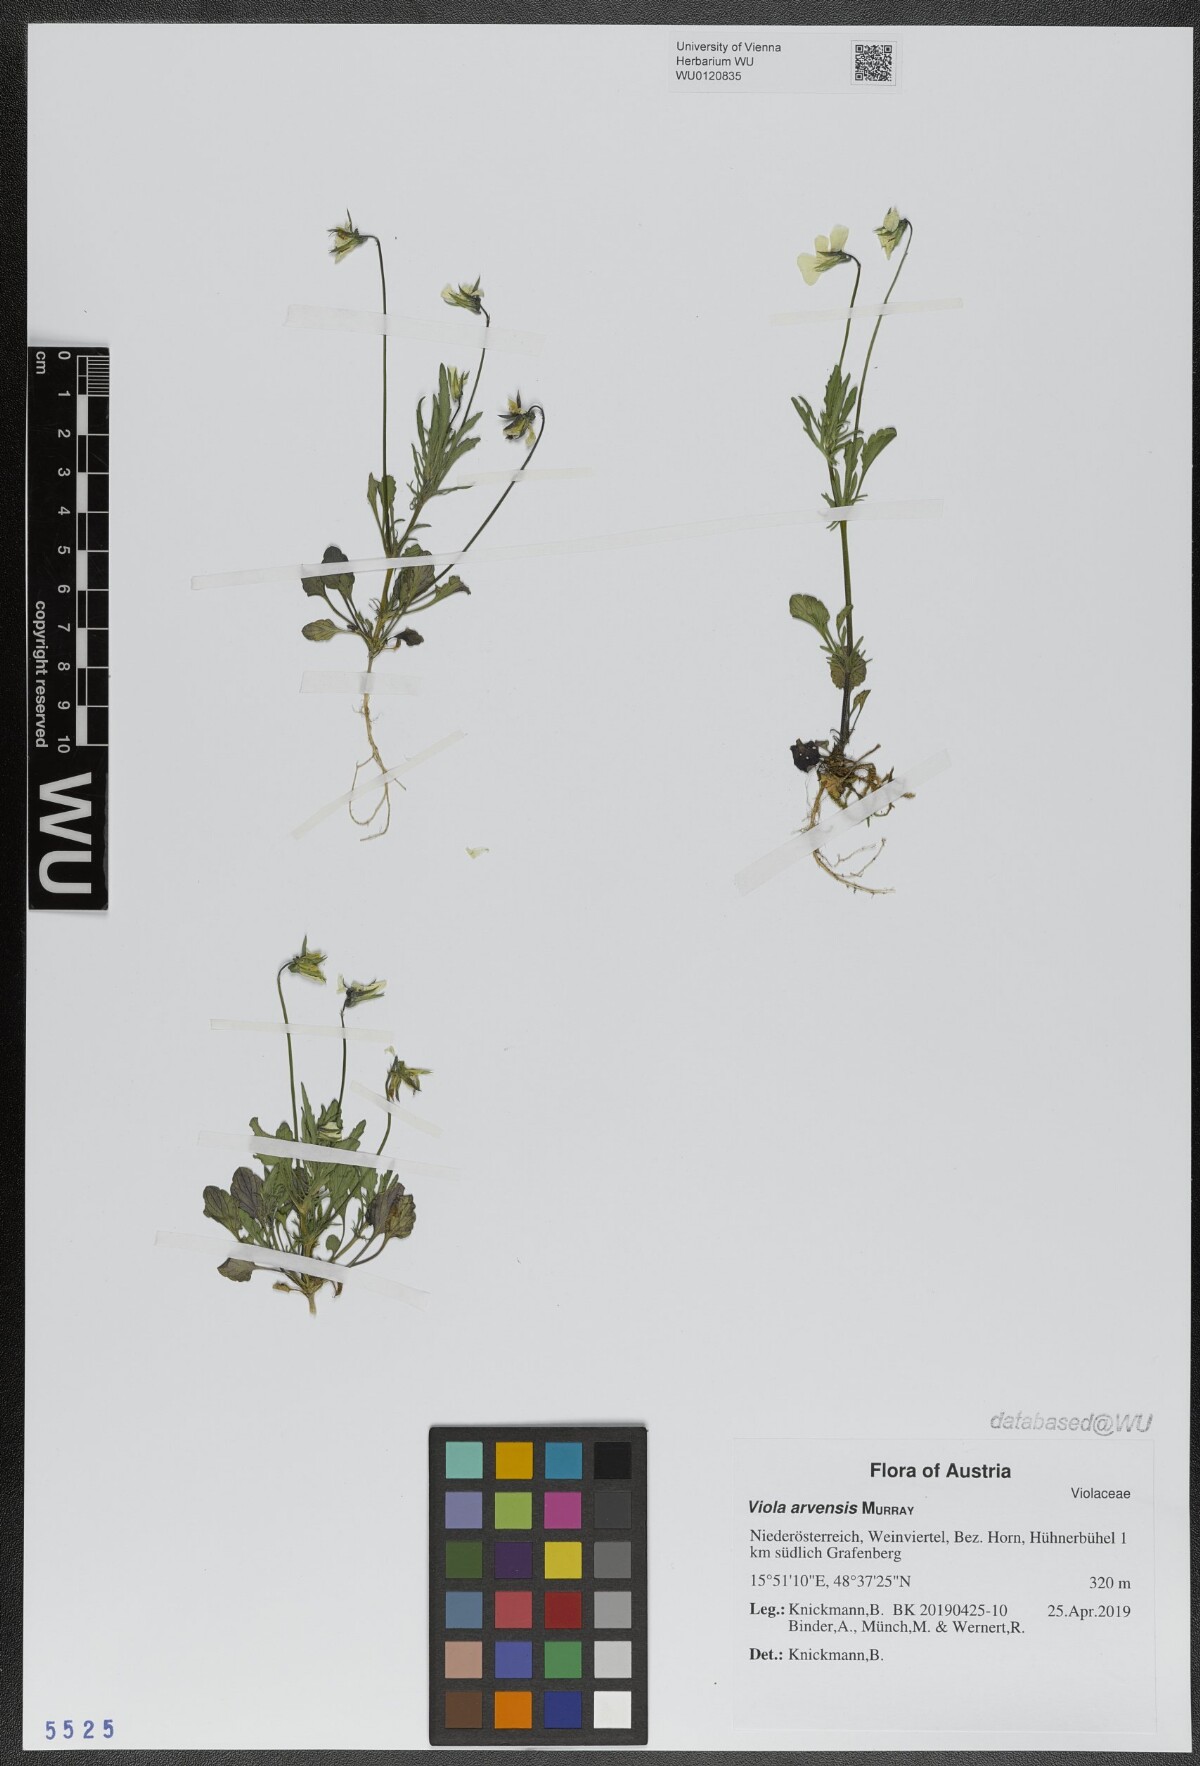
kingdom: Plantae
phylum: Tracheophyta
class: Magnoliopsida
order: Malpighiales
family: Violaceae
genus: Viola
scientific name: Viola arvensis
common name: Field pansy
